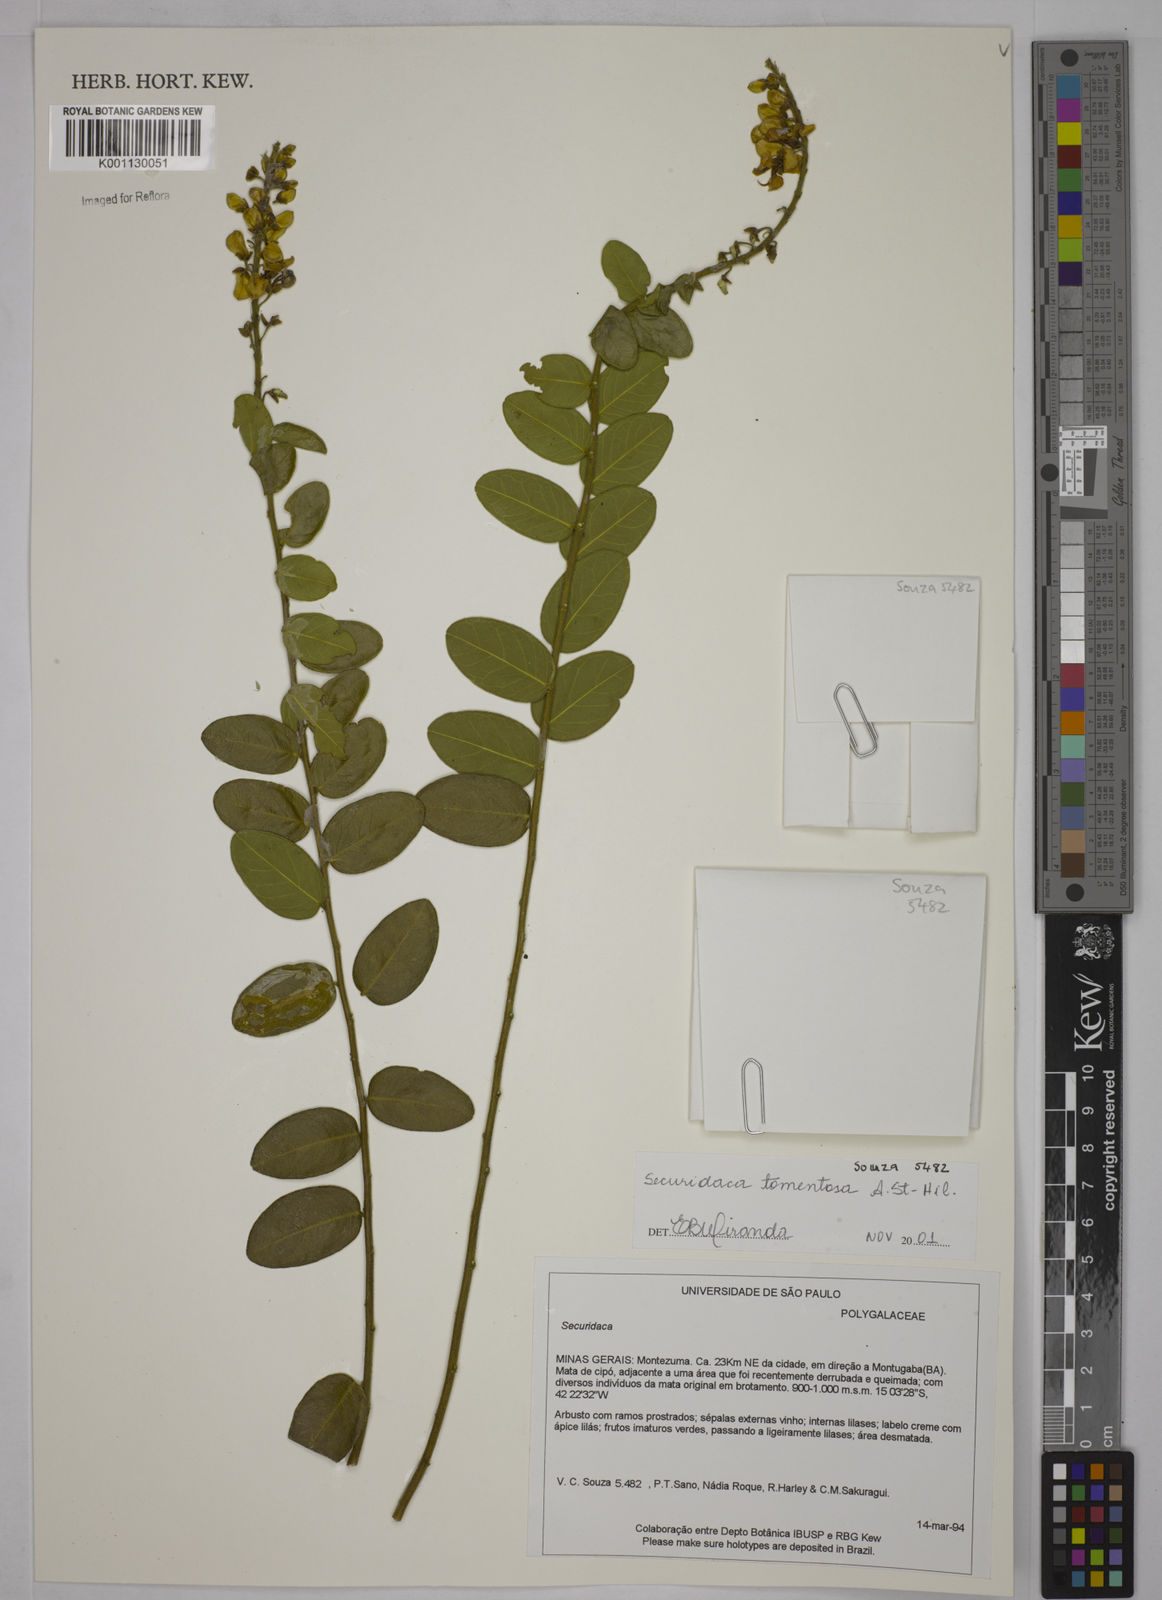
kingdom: Plantae
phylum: Tracheophyta
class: Magnoliopsida
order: Fabales
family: Polygalaceae
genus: Securidaca
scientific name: Securidaca tomentosa
